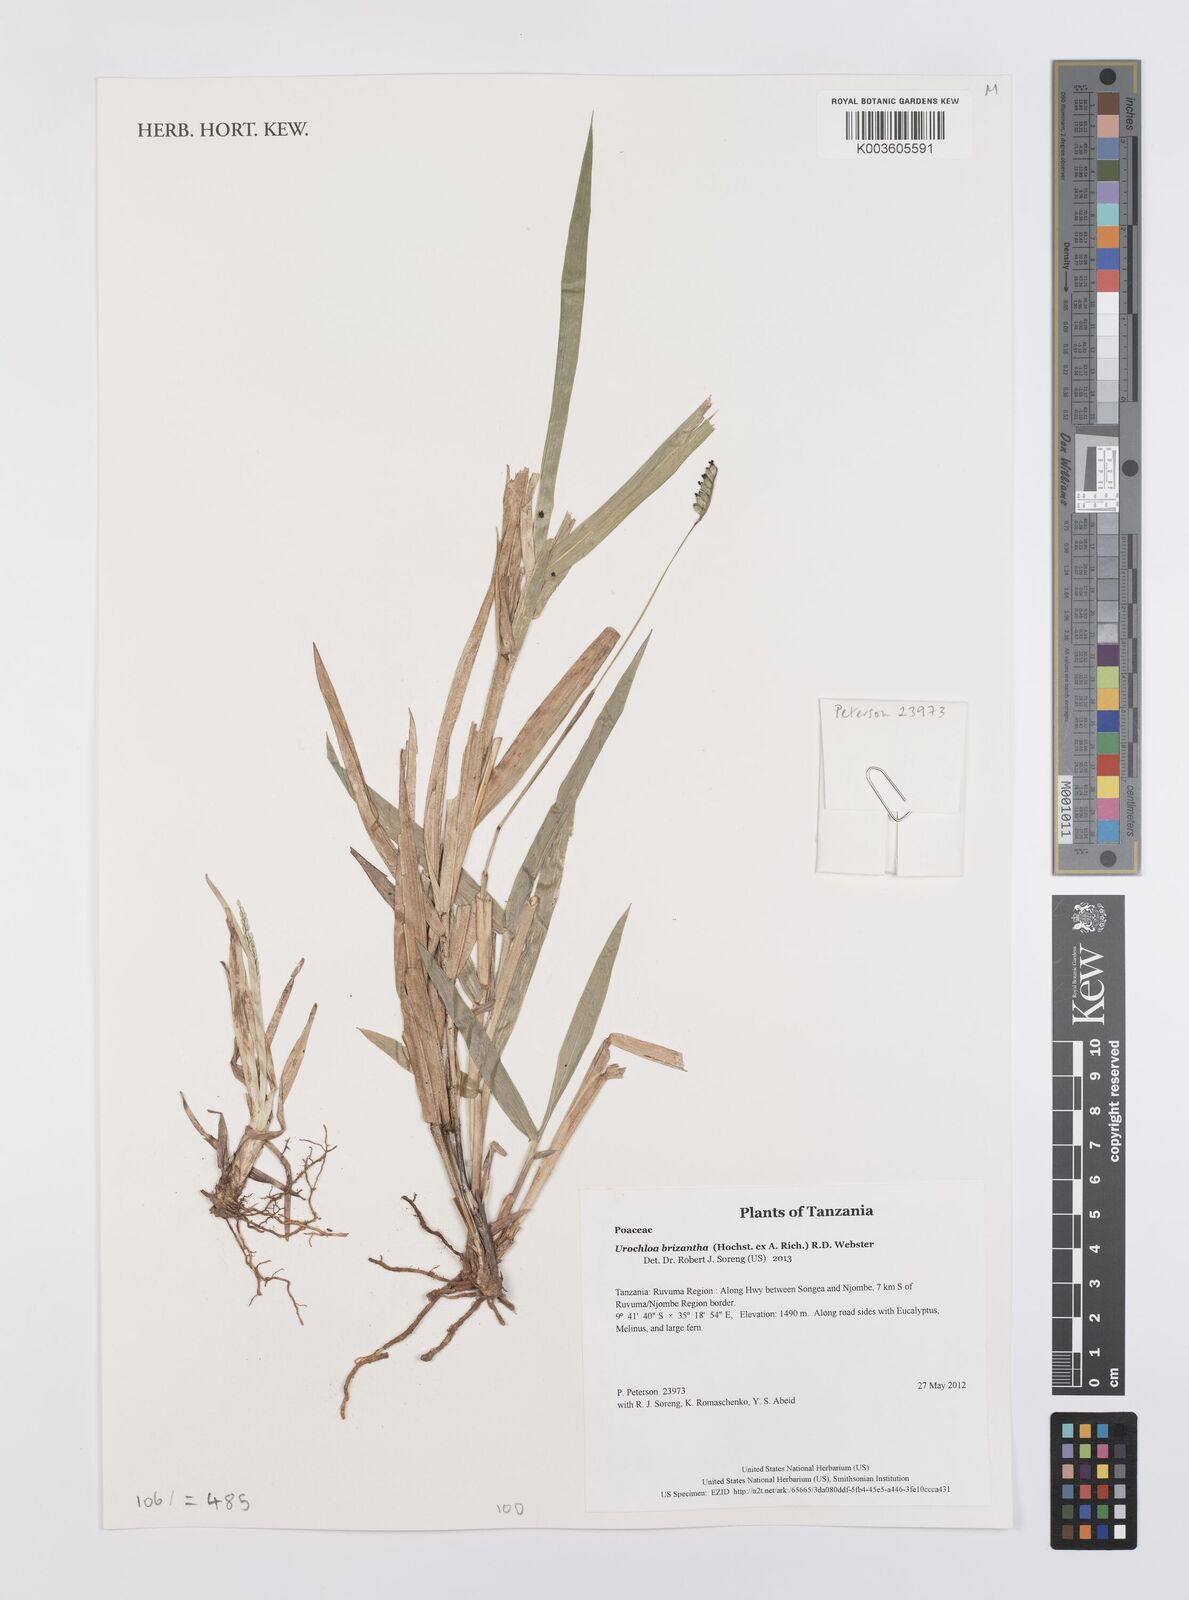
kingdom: Plantae
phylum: Tracheophyta
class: Liliopsida
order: Poales
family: Poaceae
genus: Urochloa
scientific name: Urochloa brizantha
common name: Palisade signalgrass
